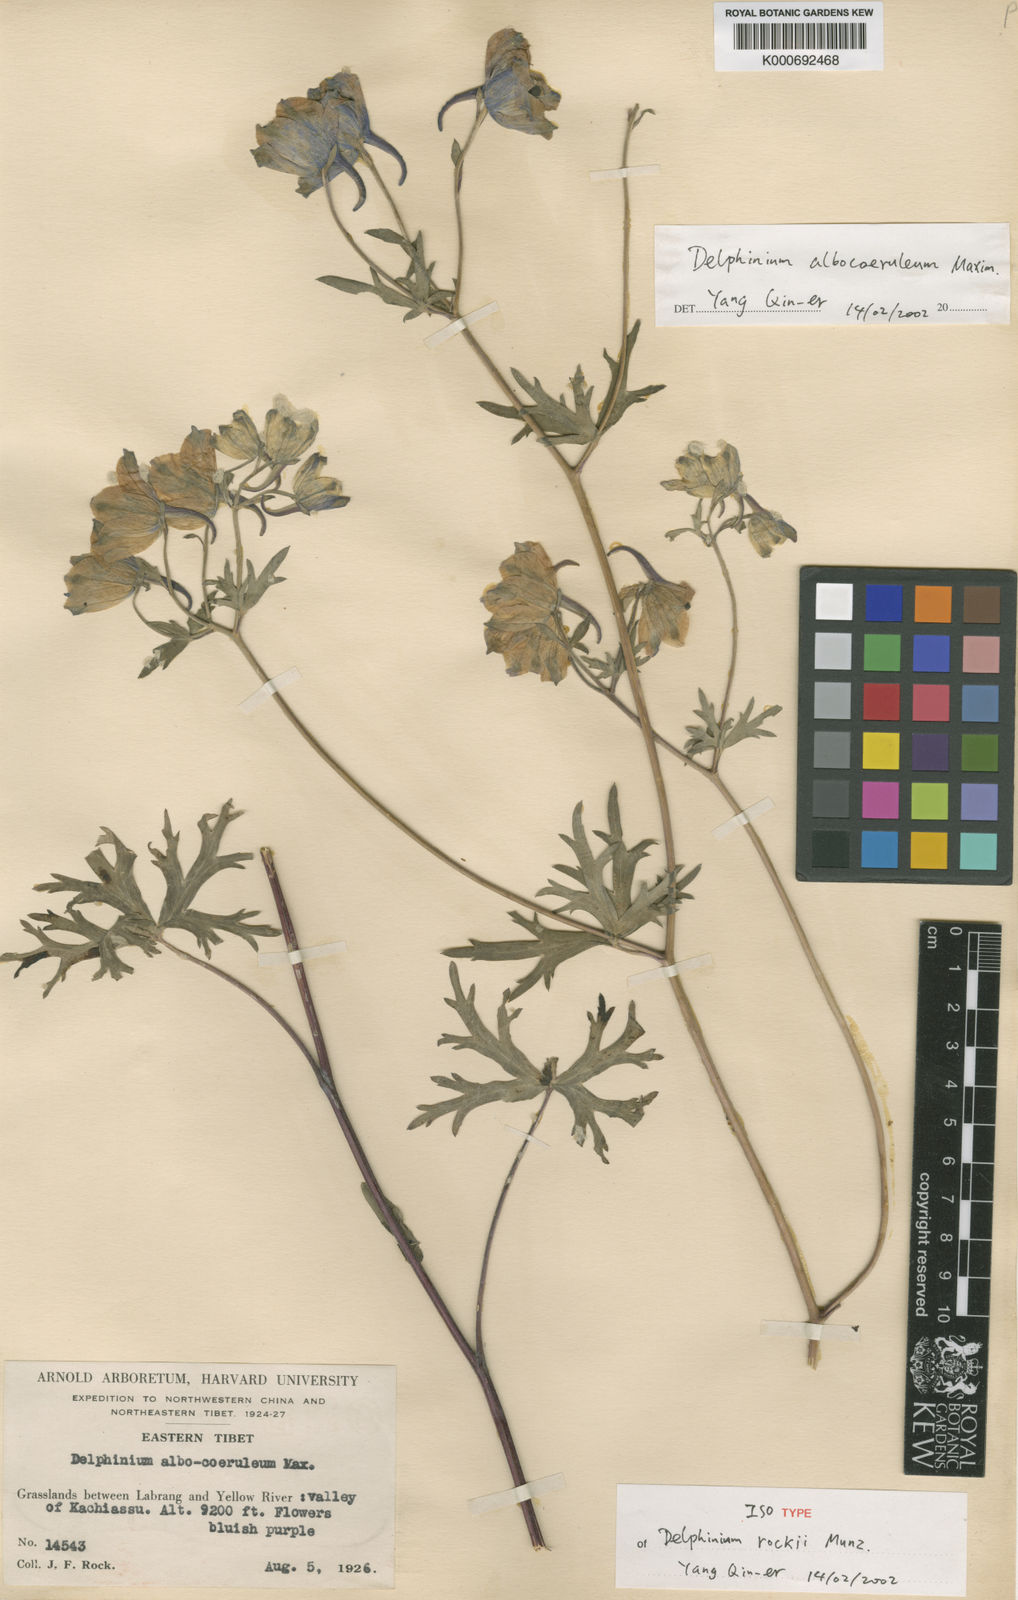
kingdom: Plantae
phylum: Tracheophyta
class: Magnoliopsida
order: Ranunculales
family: Ranunculaceae
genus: Delphinium
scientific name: Delphinium albocoeruleum
